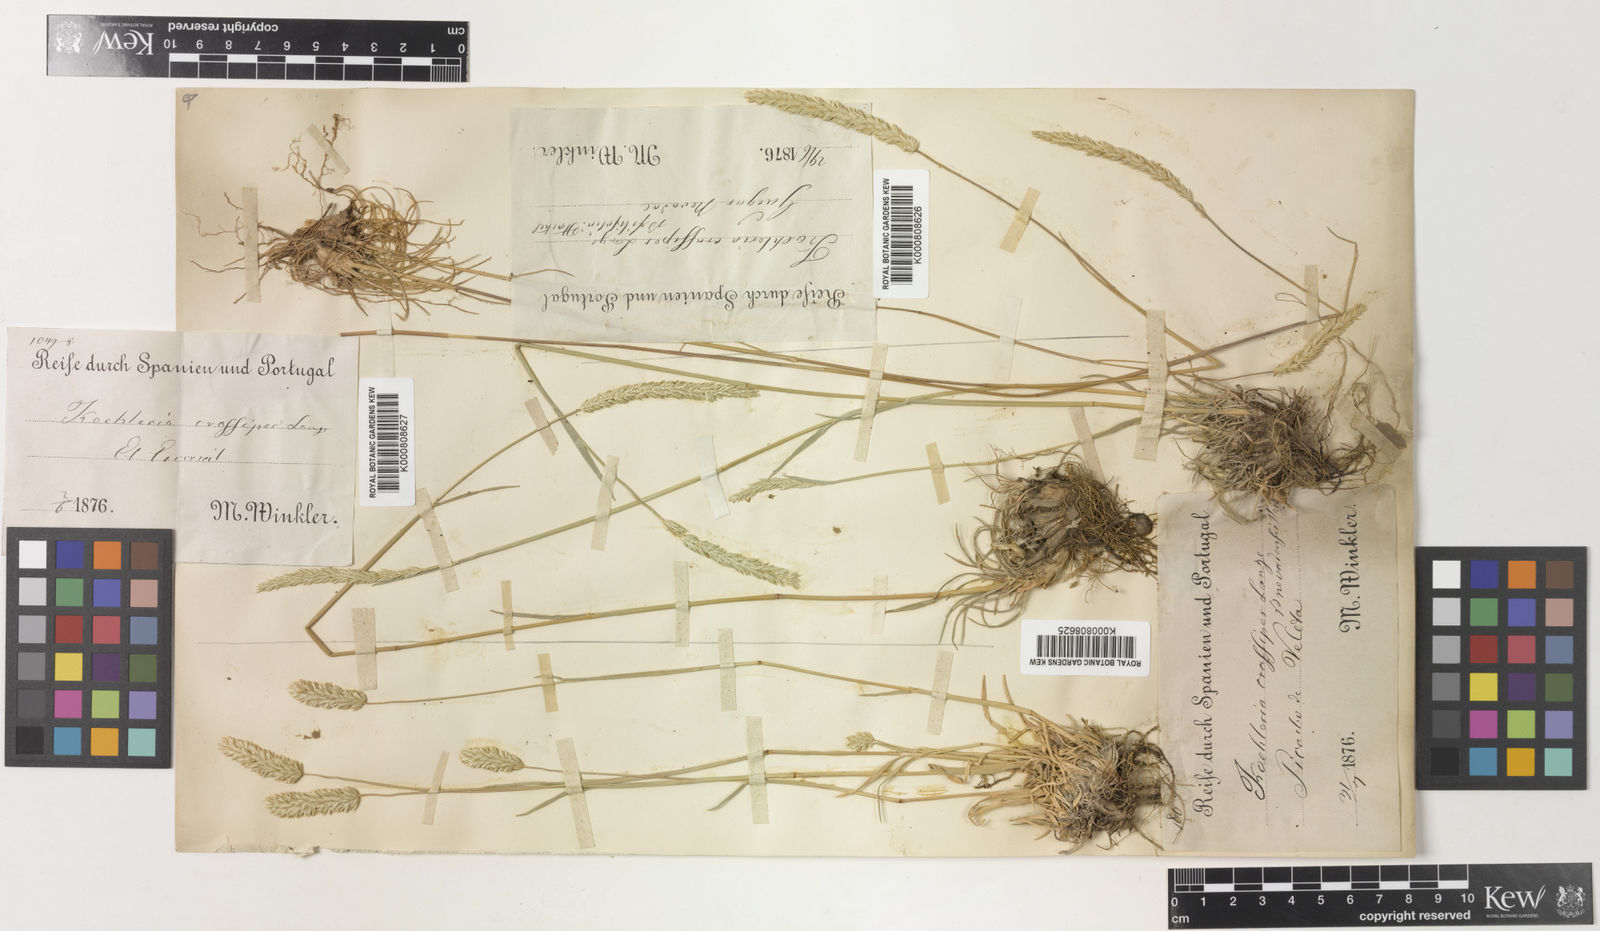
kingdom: Plantae
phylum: Tracheophyta
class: Liliopsida
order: Poales
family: Poaceae
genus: Koeleria
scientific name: Koeleria crassipes
